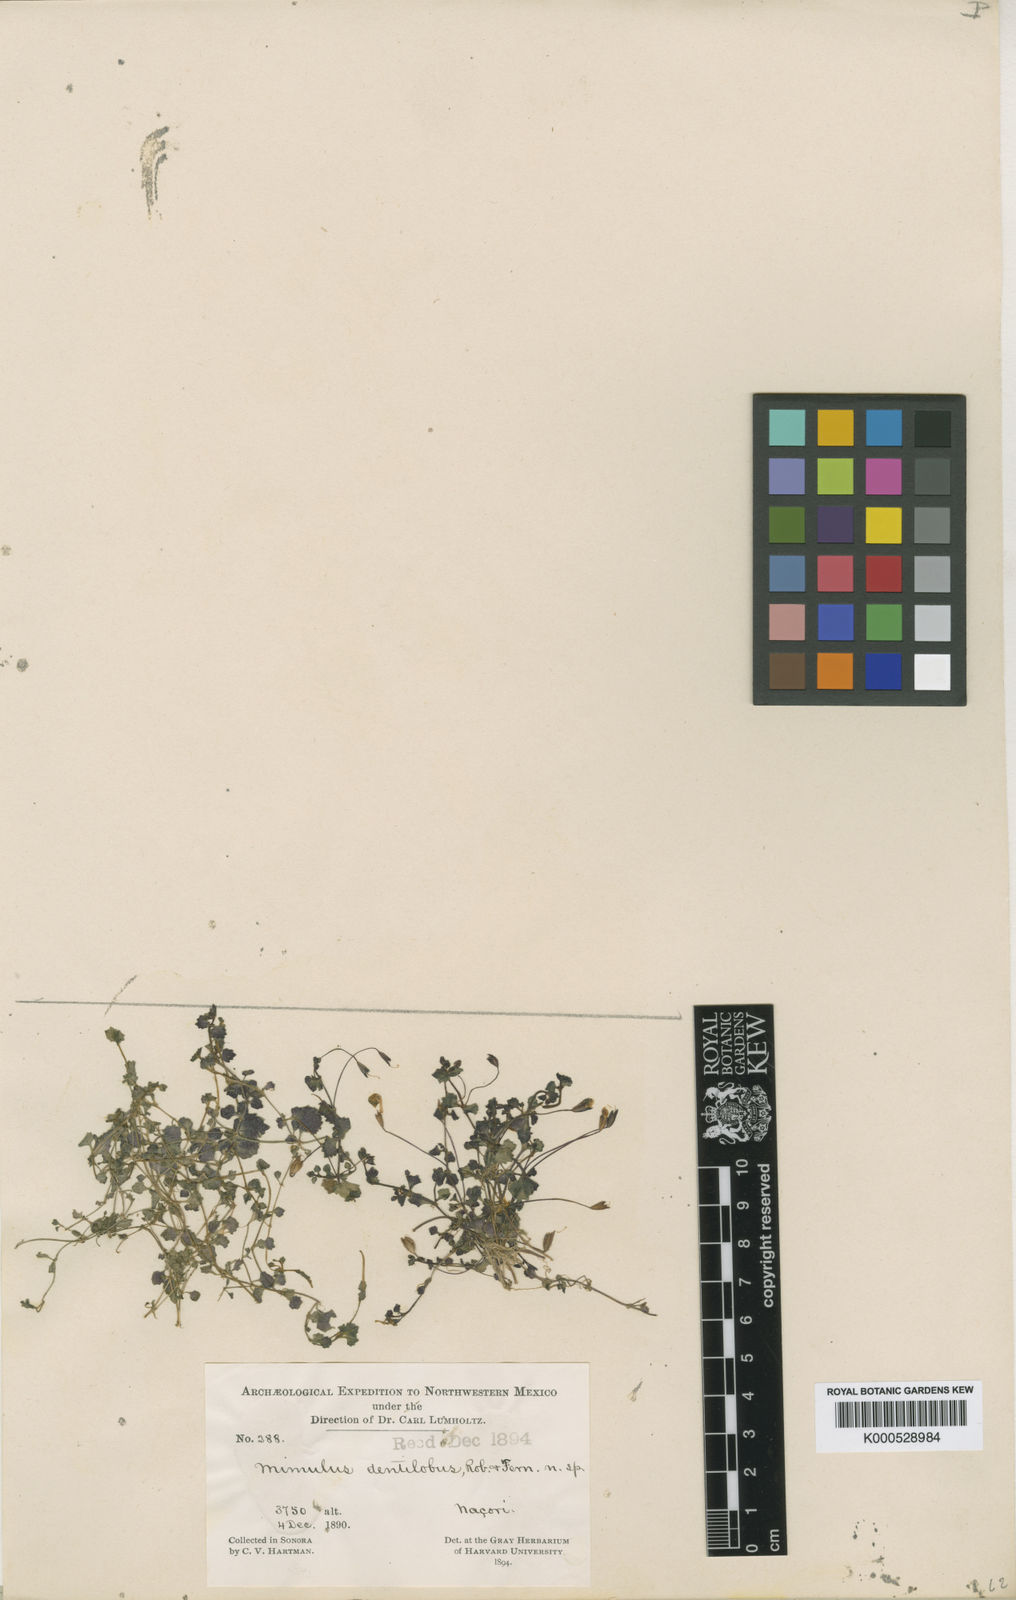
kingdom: Plantae
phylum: Tracheophyta
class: Magnoliopsida
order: Lamiales
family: Phrymaceae
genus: Erythranthe
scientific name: Erythranthe dentiloba
